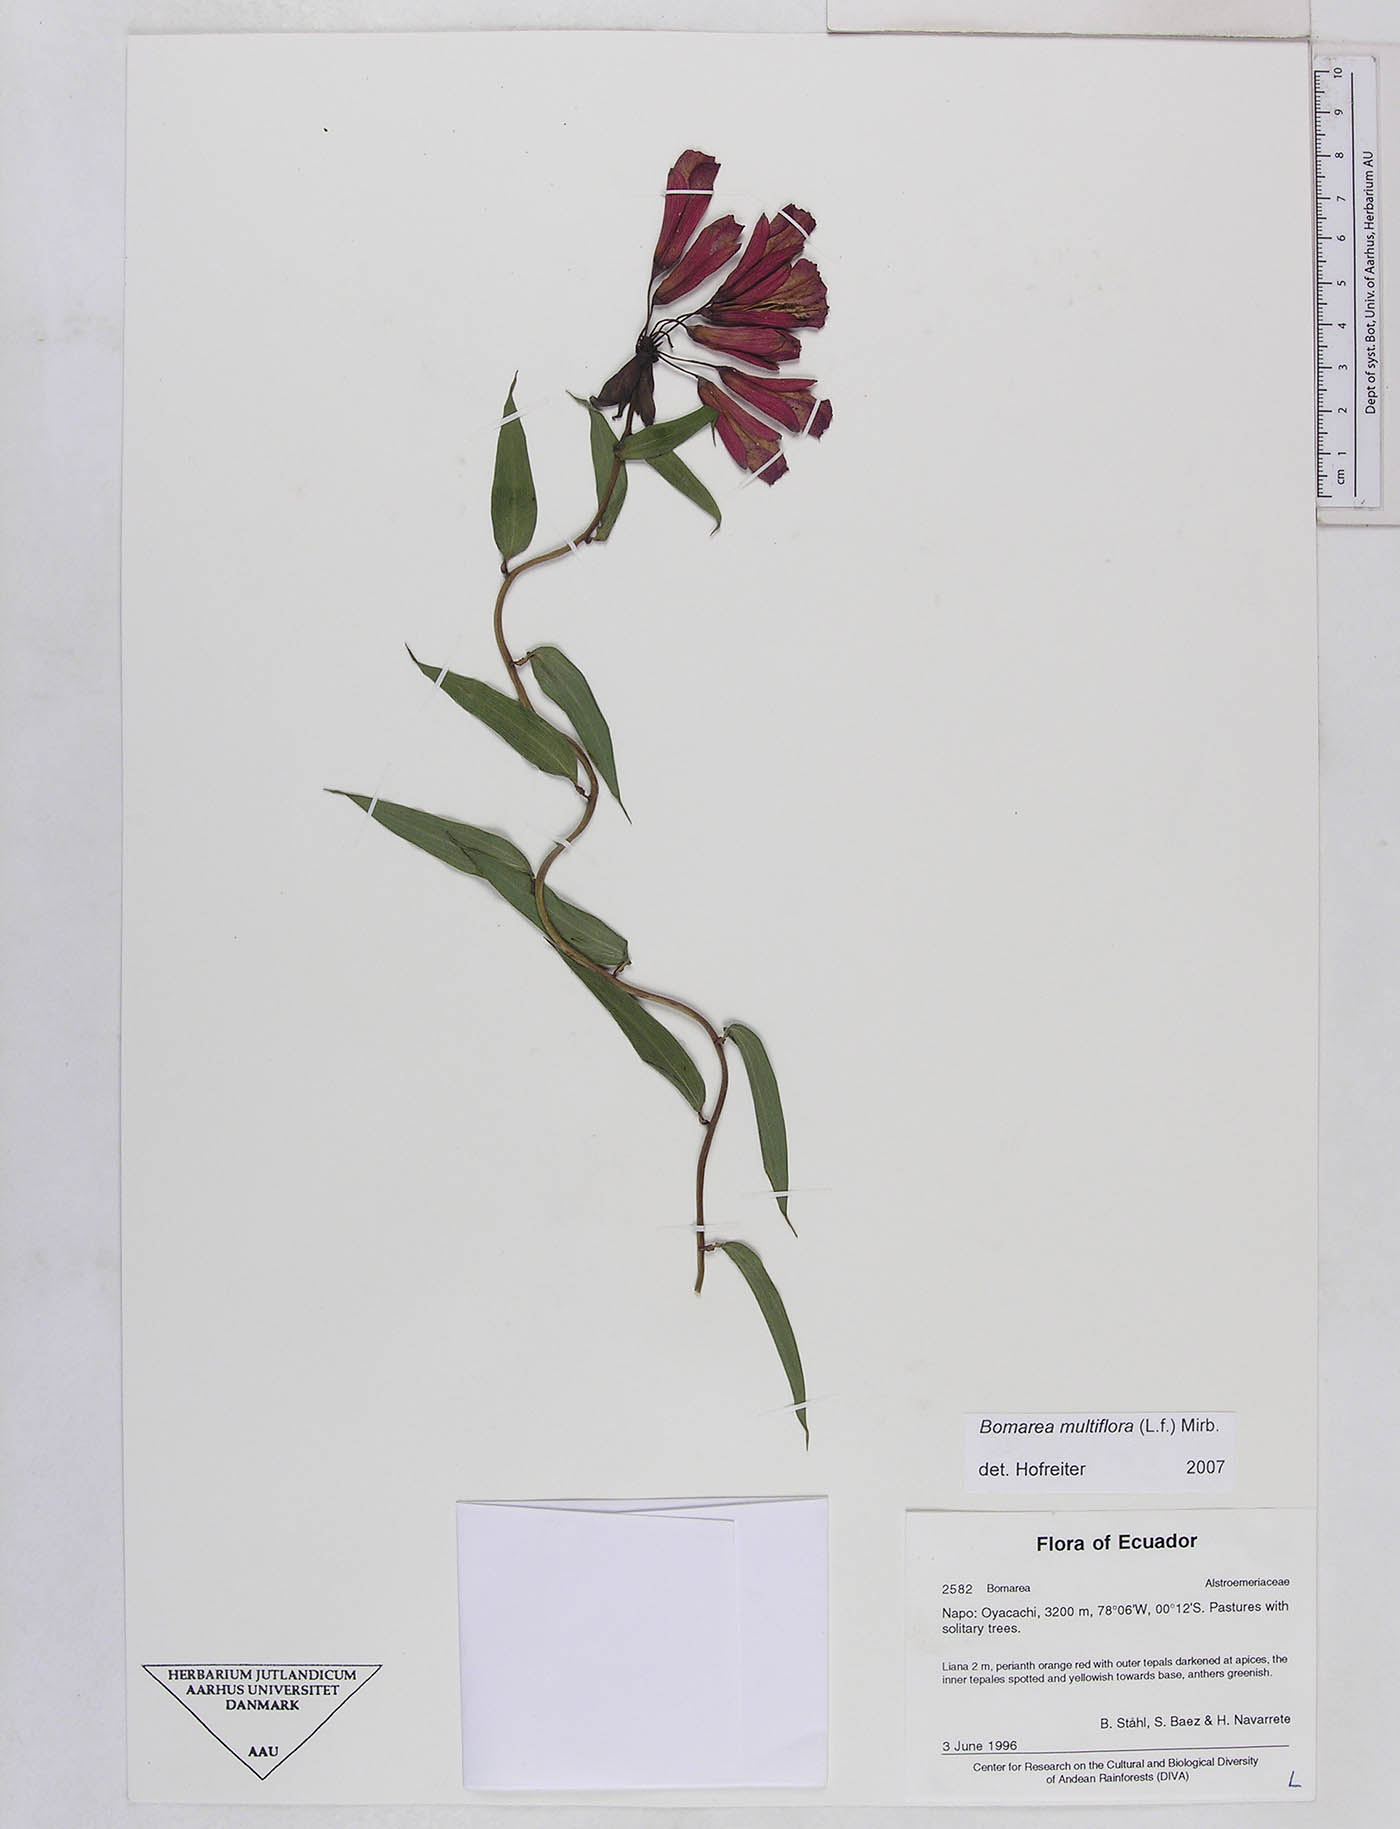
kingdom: Plantae
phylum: Tracheophyta
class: Liliopsida
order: Liliales
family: Alstroemeriaceae
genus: Bomarea
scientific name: Bomarea multiflora
